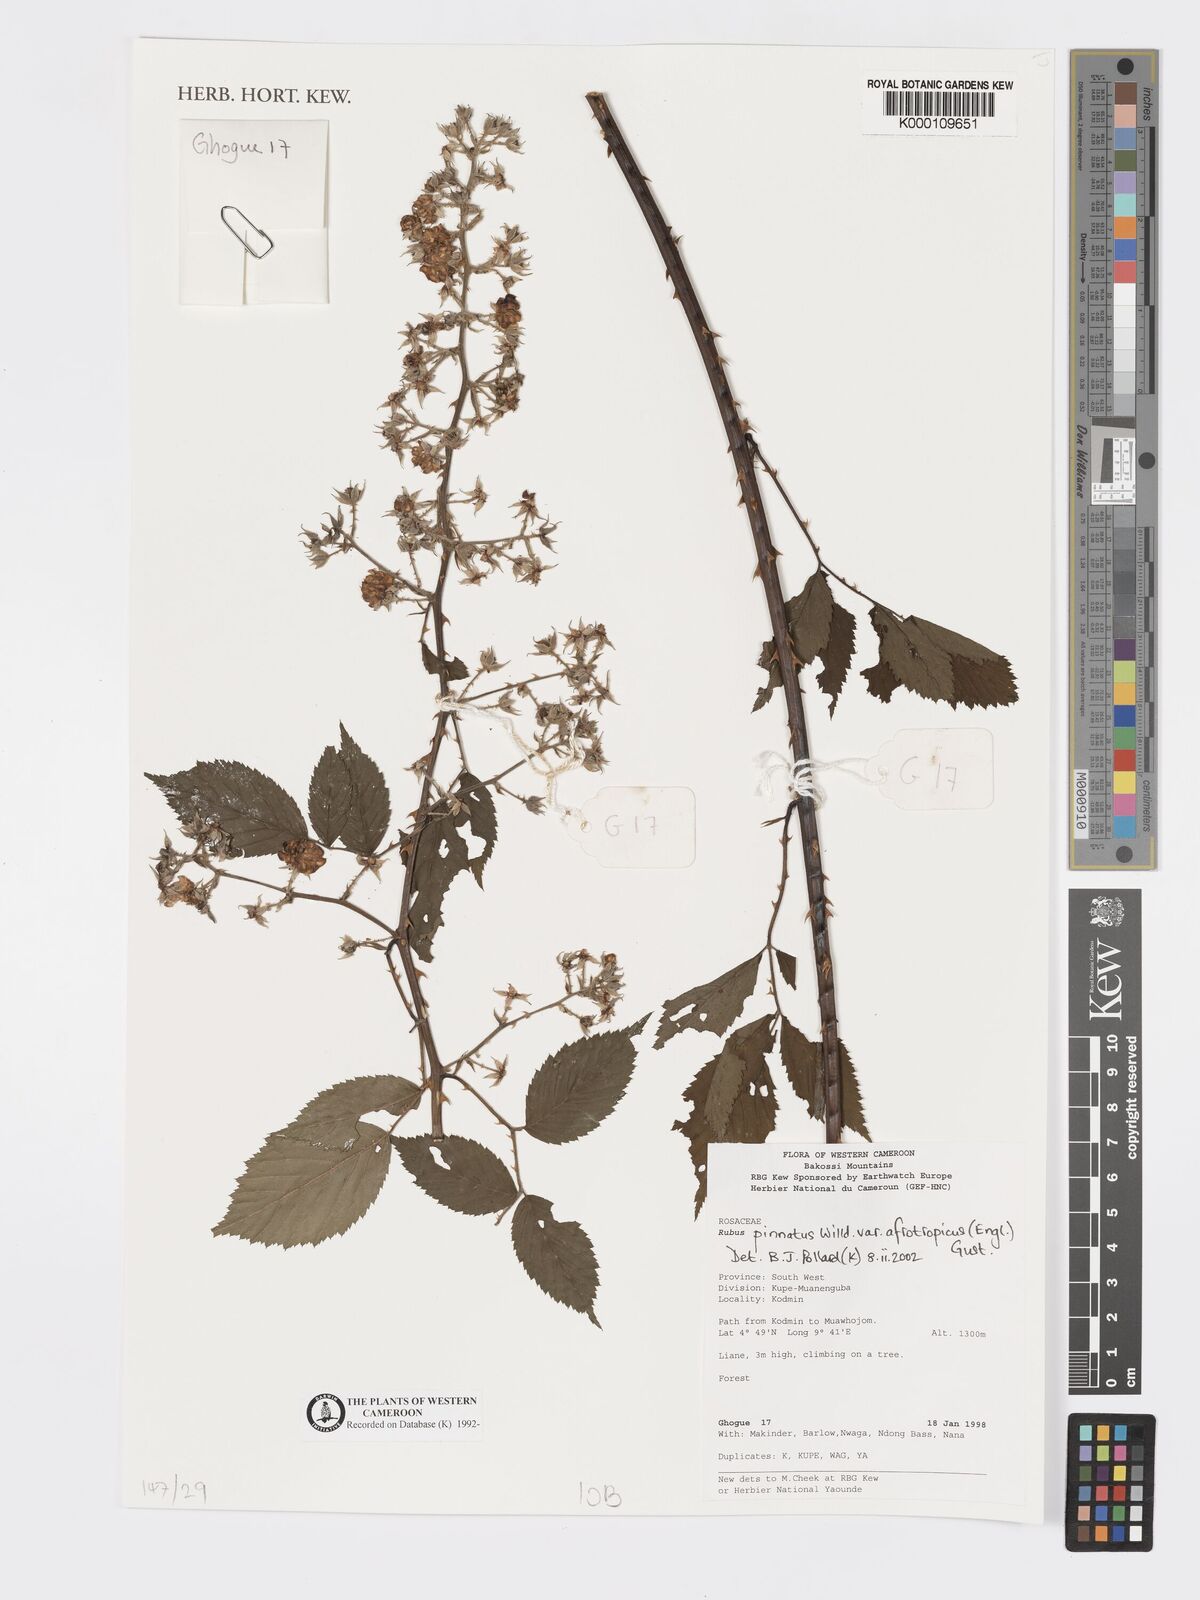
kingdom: Plantae
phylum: Tracheophyta
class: Magnoliopsida
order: Rosales
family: Rosaceae
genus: Rubus
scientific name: Rubus pinnatus
